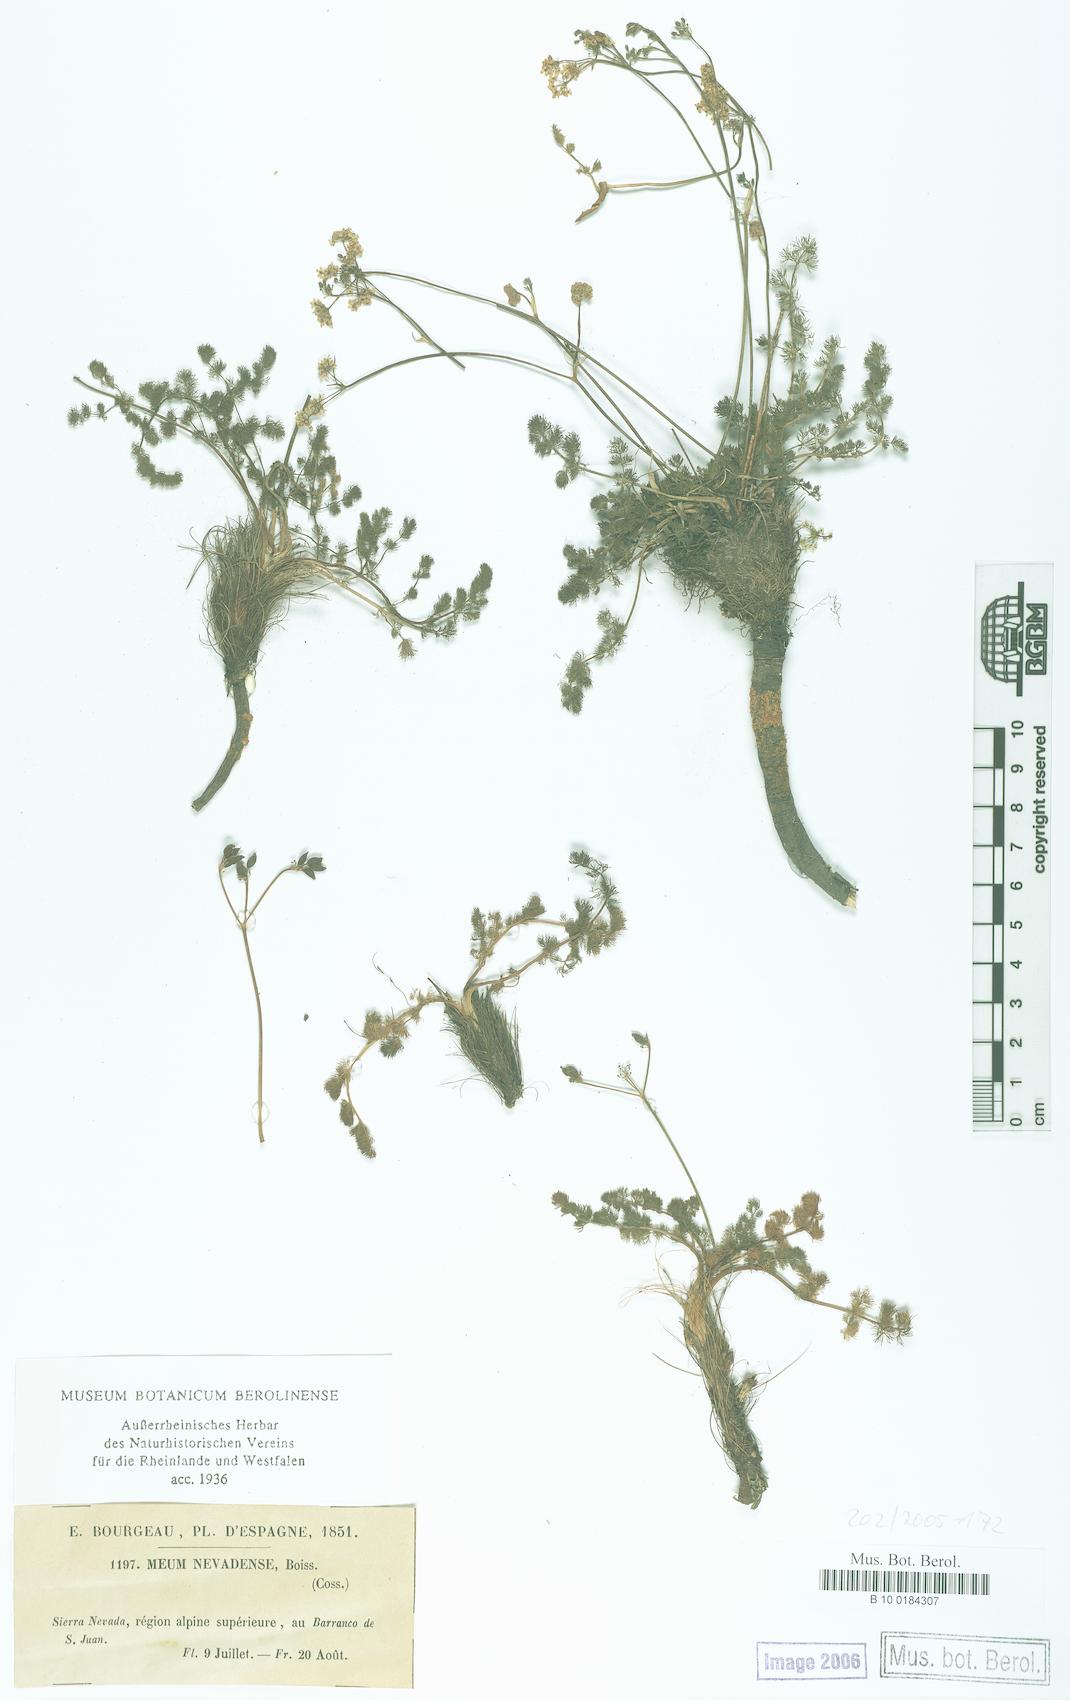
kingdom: Plantae
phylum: Tracheophyta
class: Magnoliopsida
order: Apiales
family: Apiaceae
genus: Meum
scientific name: Meum athamanticum
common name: Spignel
